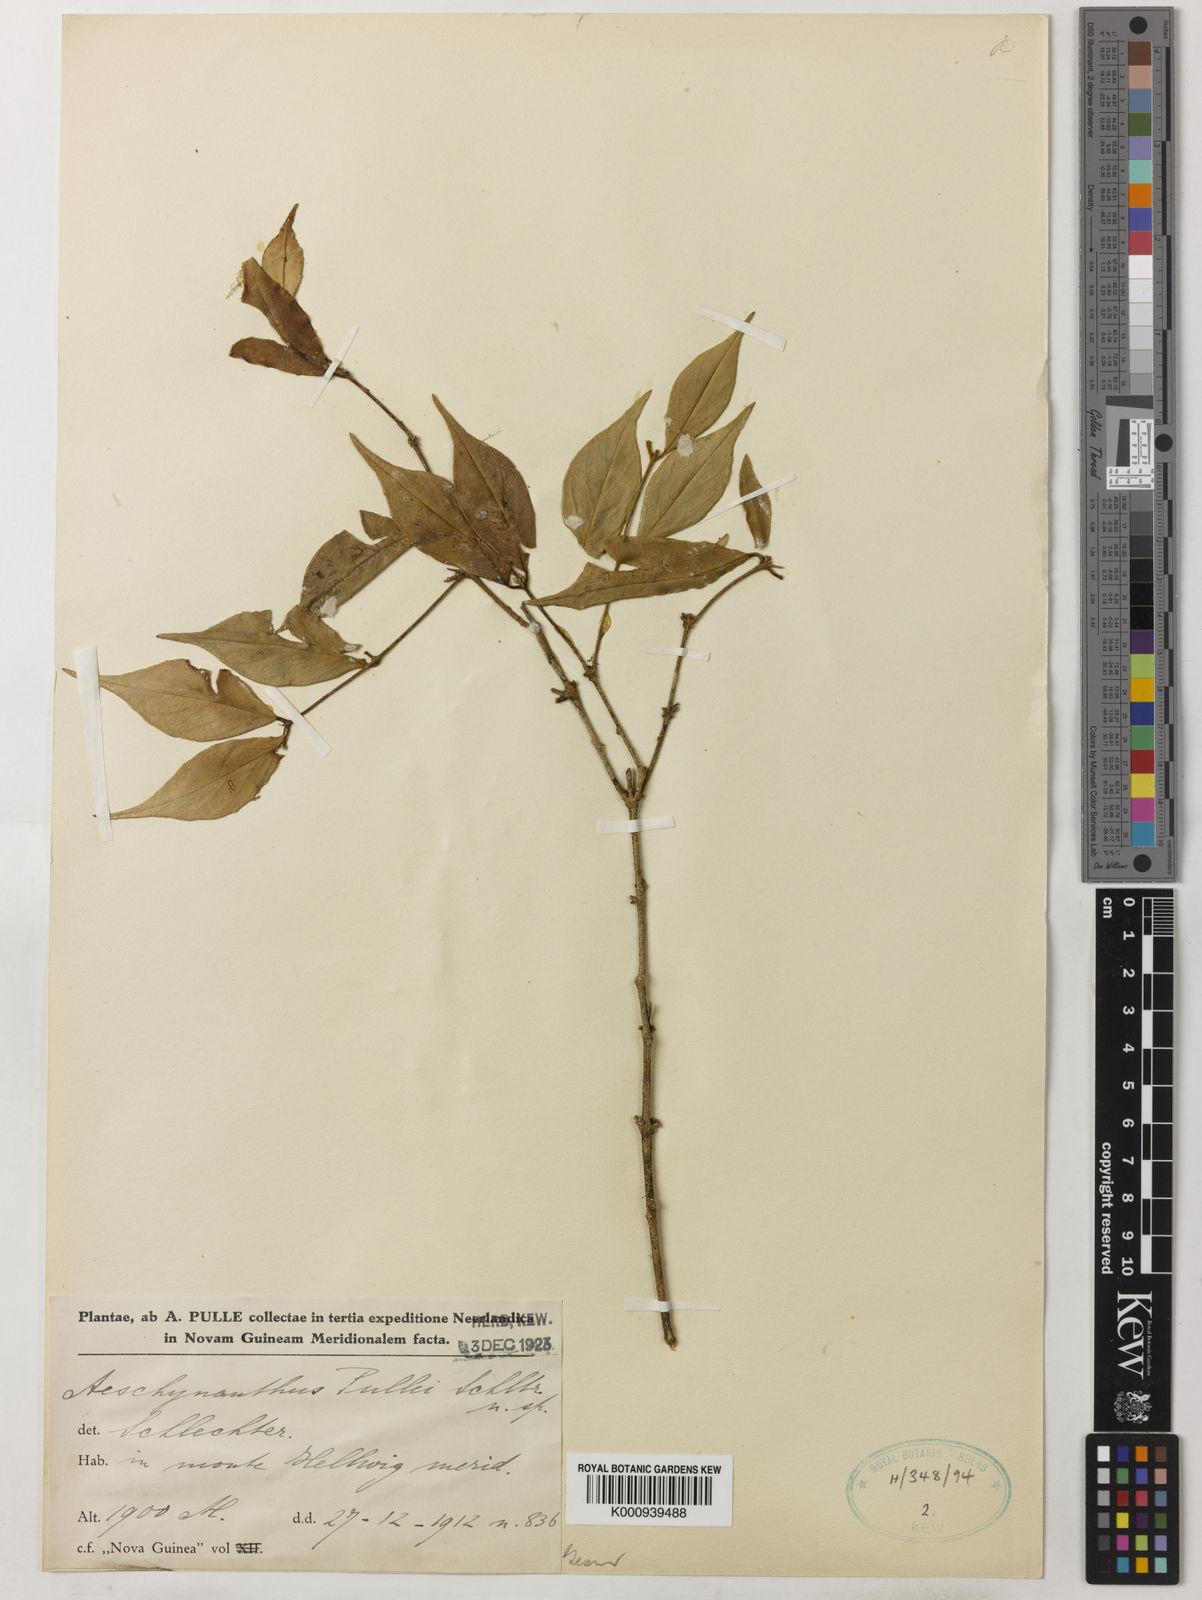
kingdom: Plantae
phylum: Tracheophyta
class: Magnoliopsida
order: Lamiales
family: Gesneriaceae
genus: Aeschynanthus
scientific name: Aeschynanthus oxychlamys
